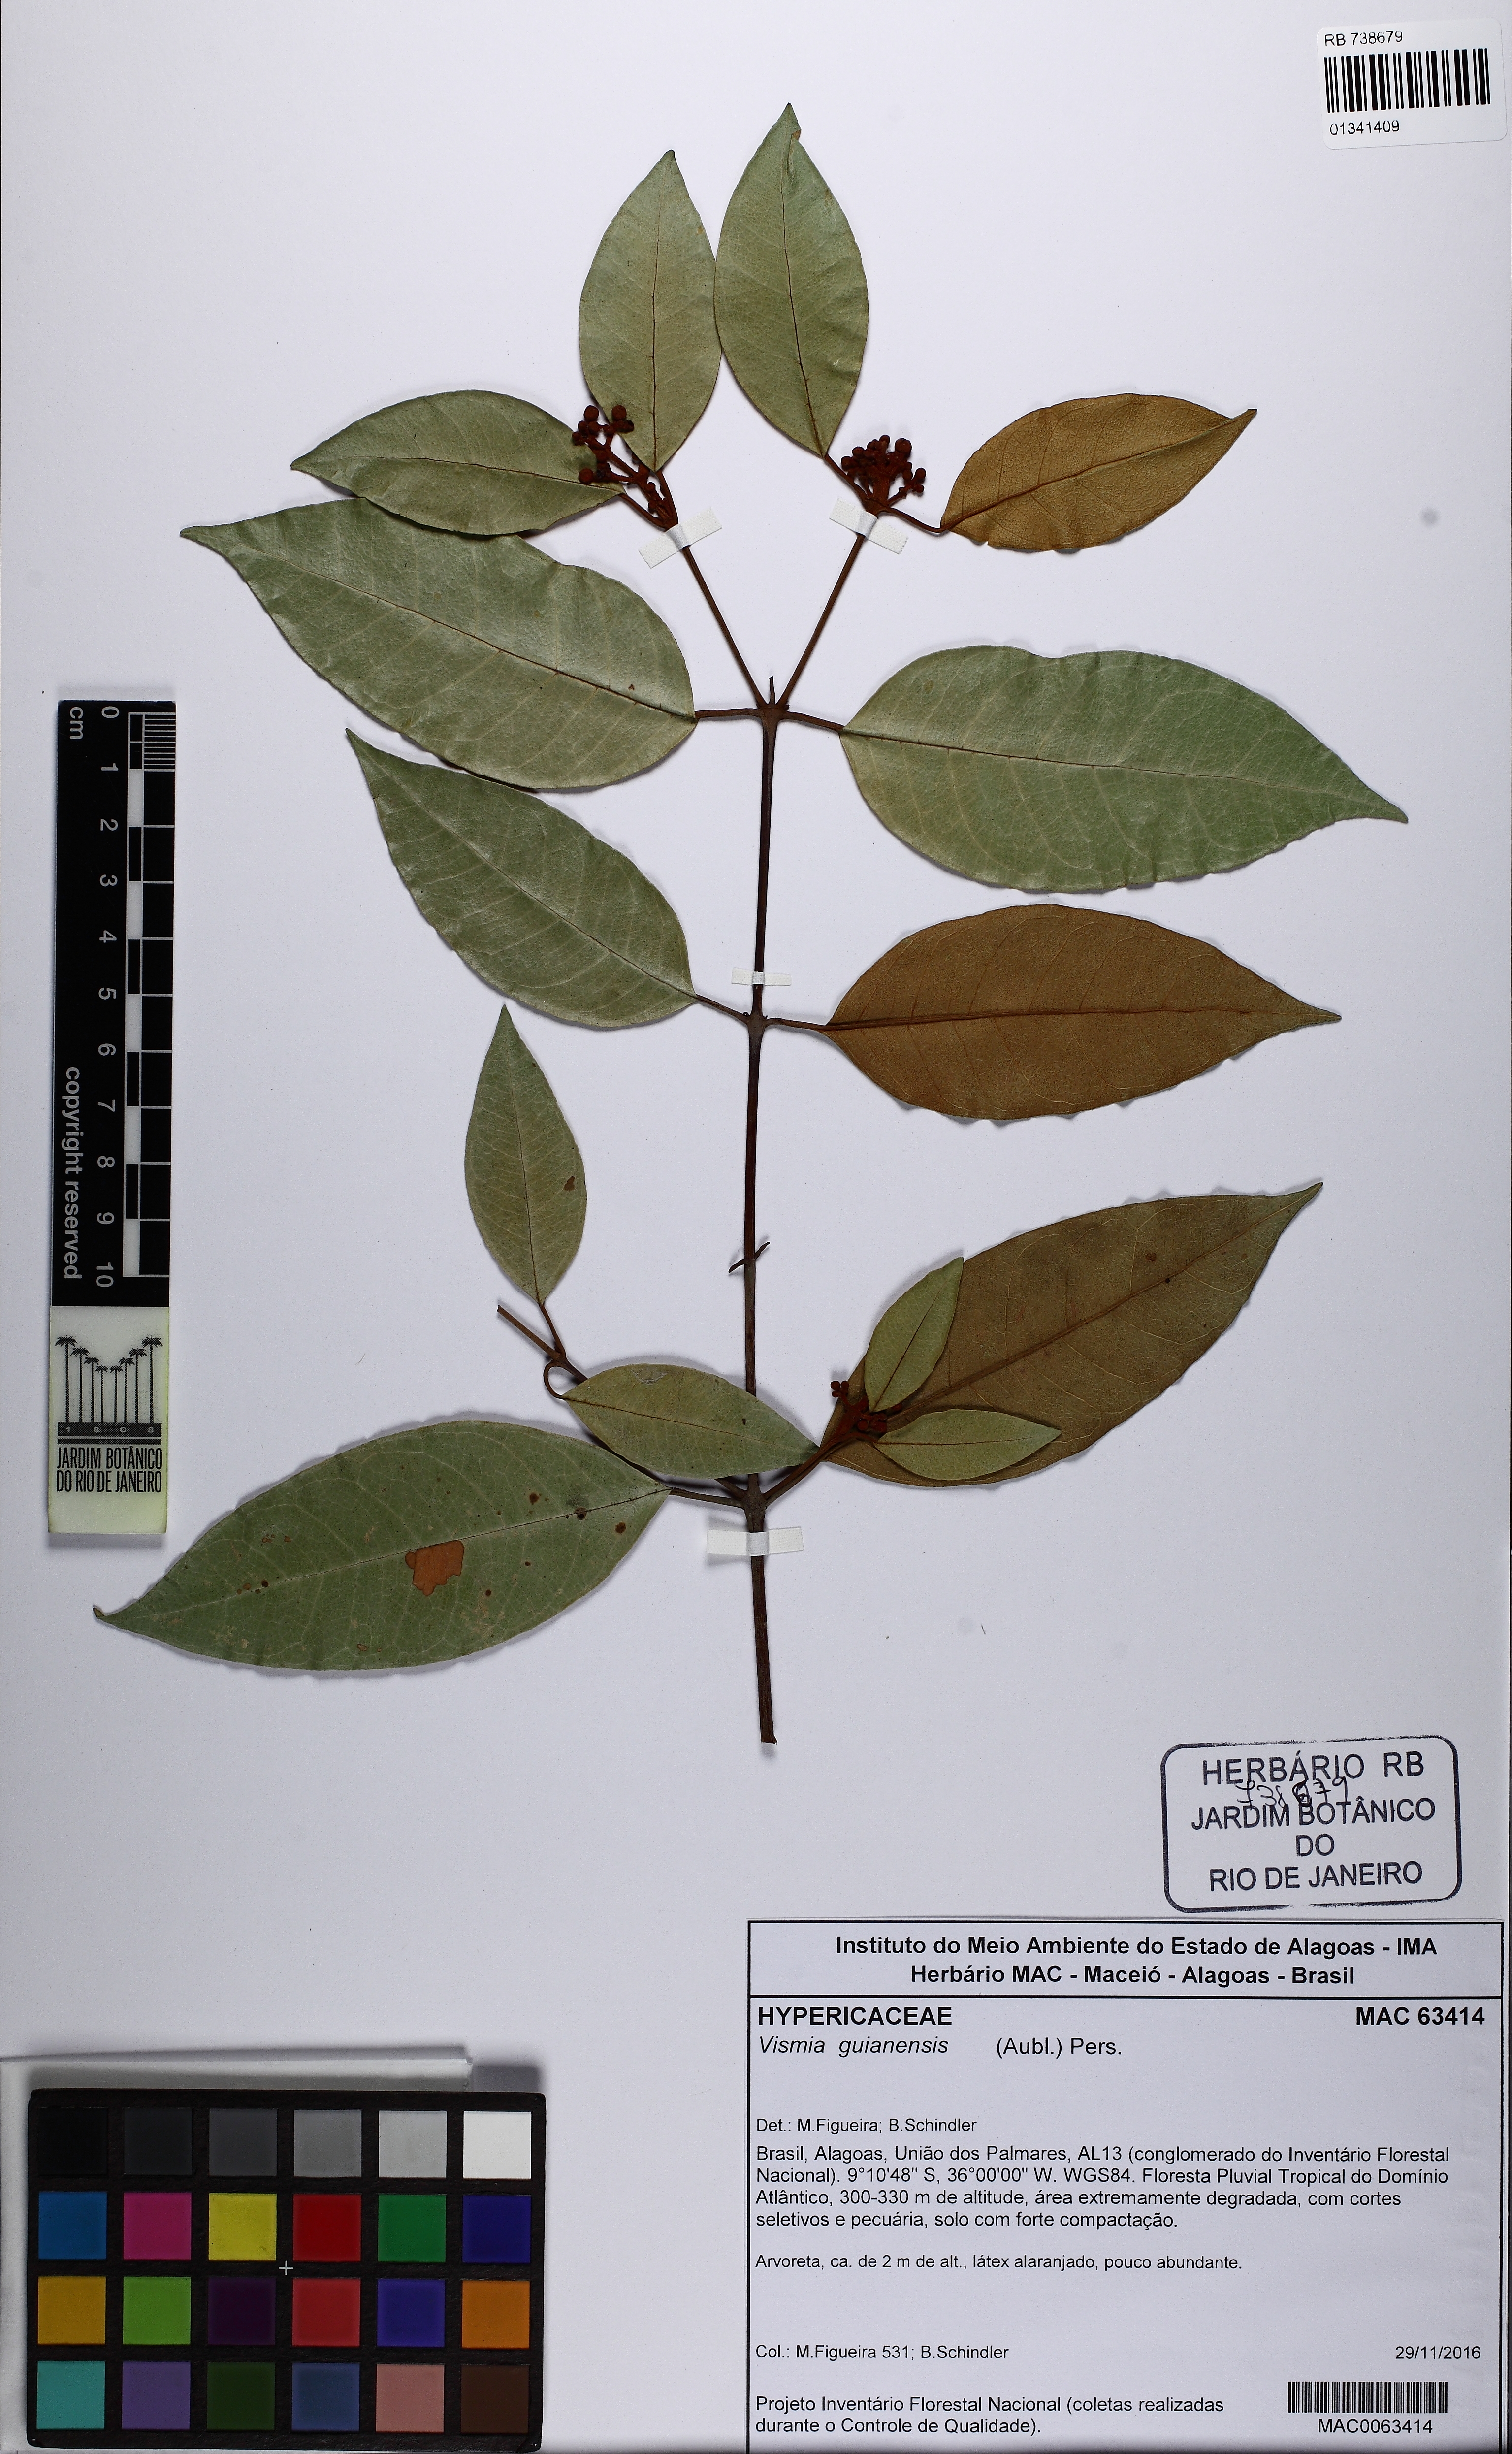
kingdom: Plantae
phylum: Tracheophyta
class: Magnoliopsida
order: Malpighiales
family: Hypericaceae
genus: Vismia
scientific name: Vismia guianensis
